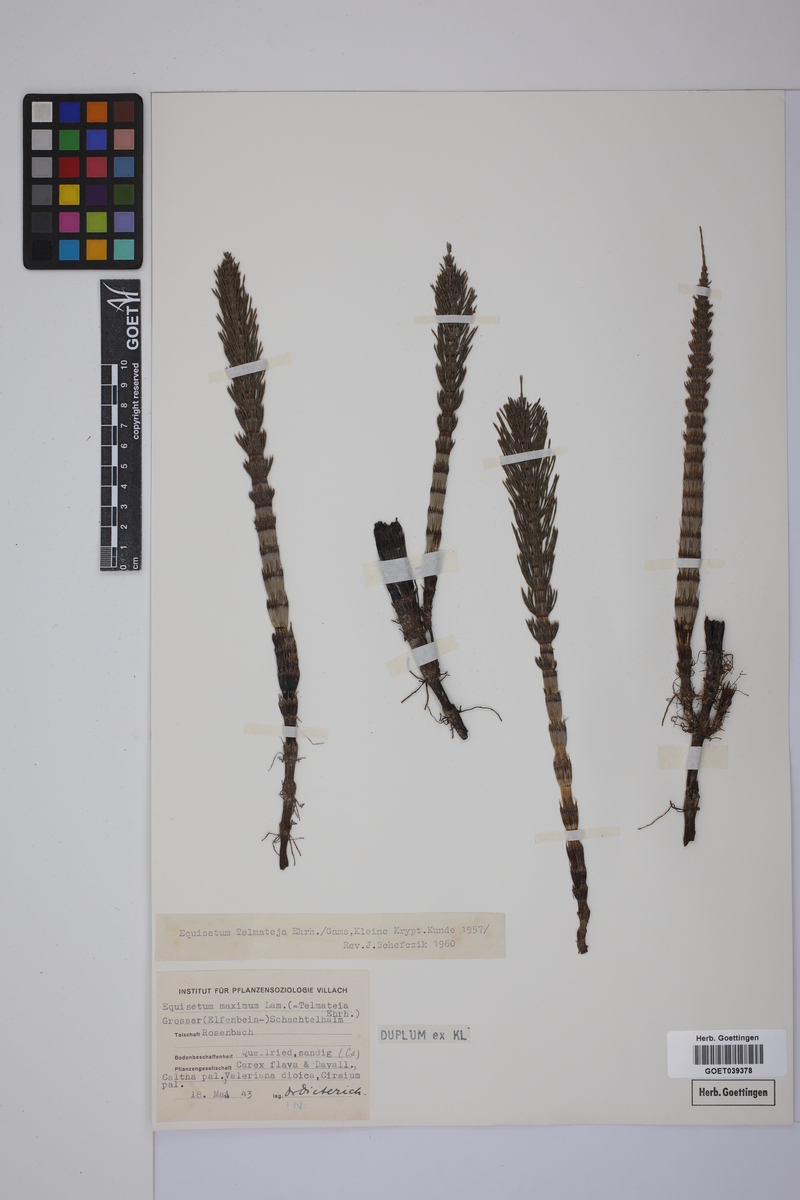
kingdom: Plantae
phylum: Tracheophyta
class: Polypodiopsida
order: Equisetales
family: Equisetaceae
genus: Equisetum
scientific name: Equisetum telmateia
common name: Great horsetail
